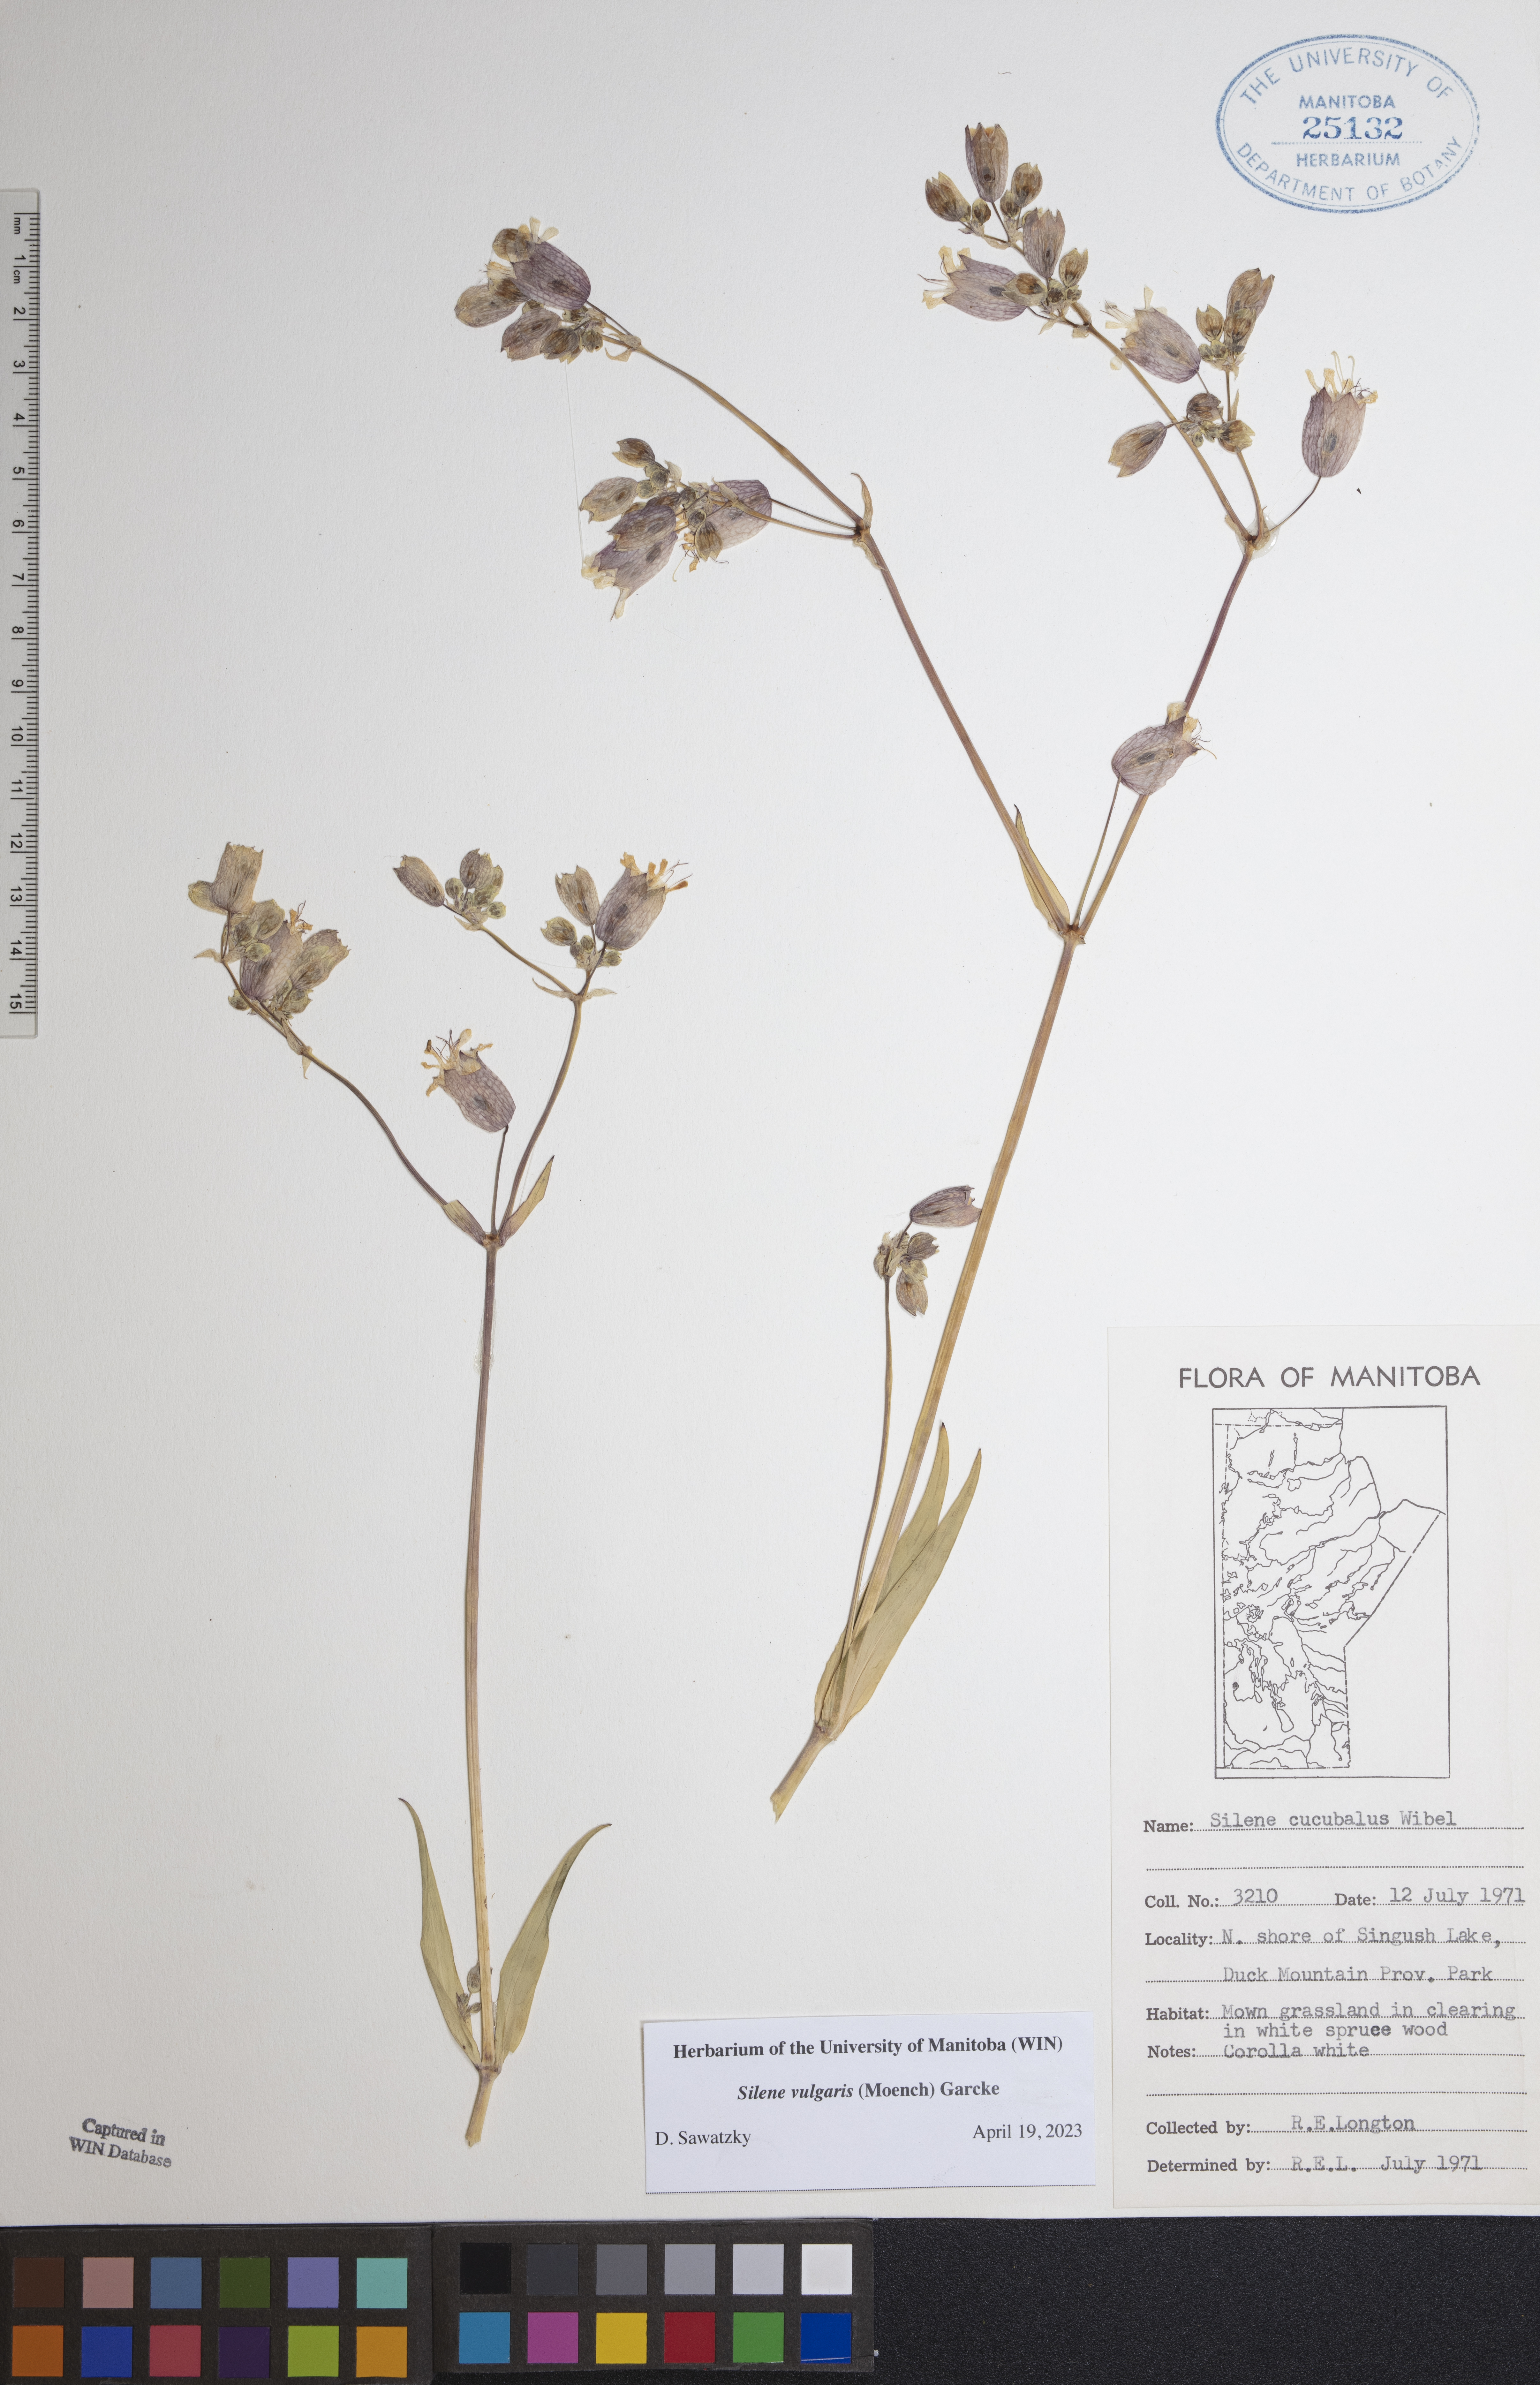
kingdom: Plantae
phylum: Tracheophyta
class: Magnoliopsida
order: Caryophyllales
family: Caryophyllaceae
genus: Silene
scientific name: Silene vulgaris
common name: Bladder campion
